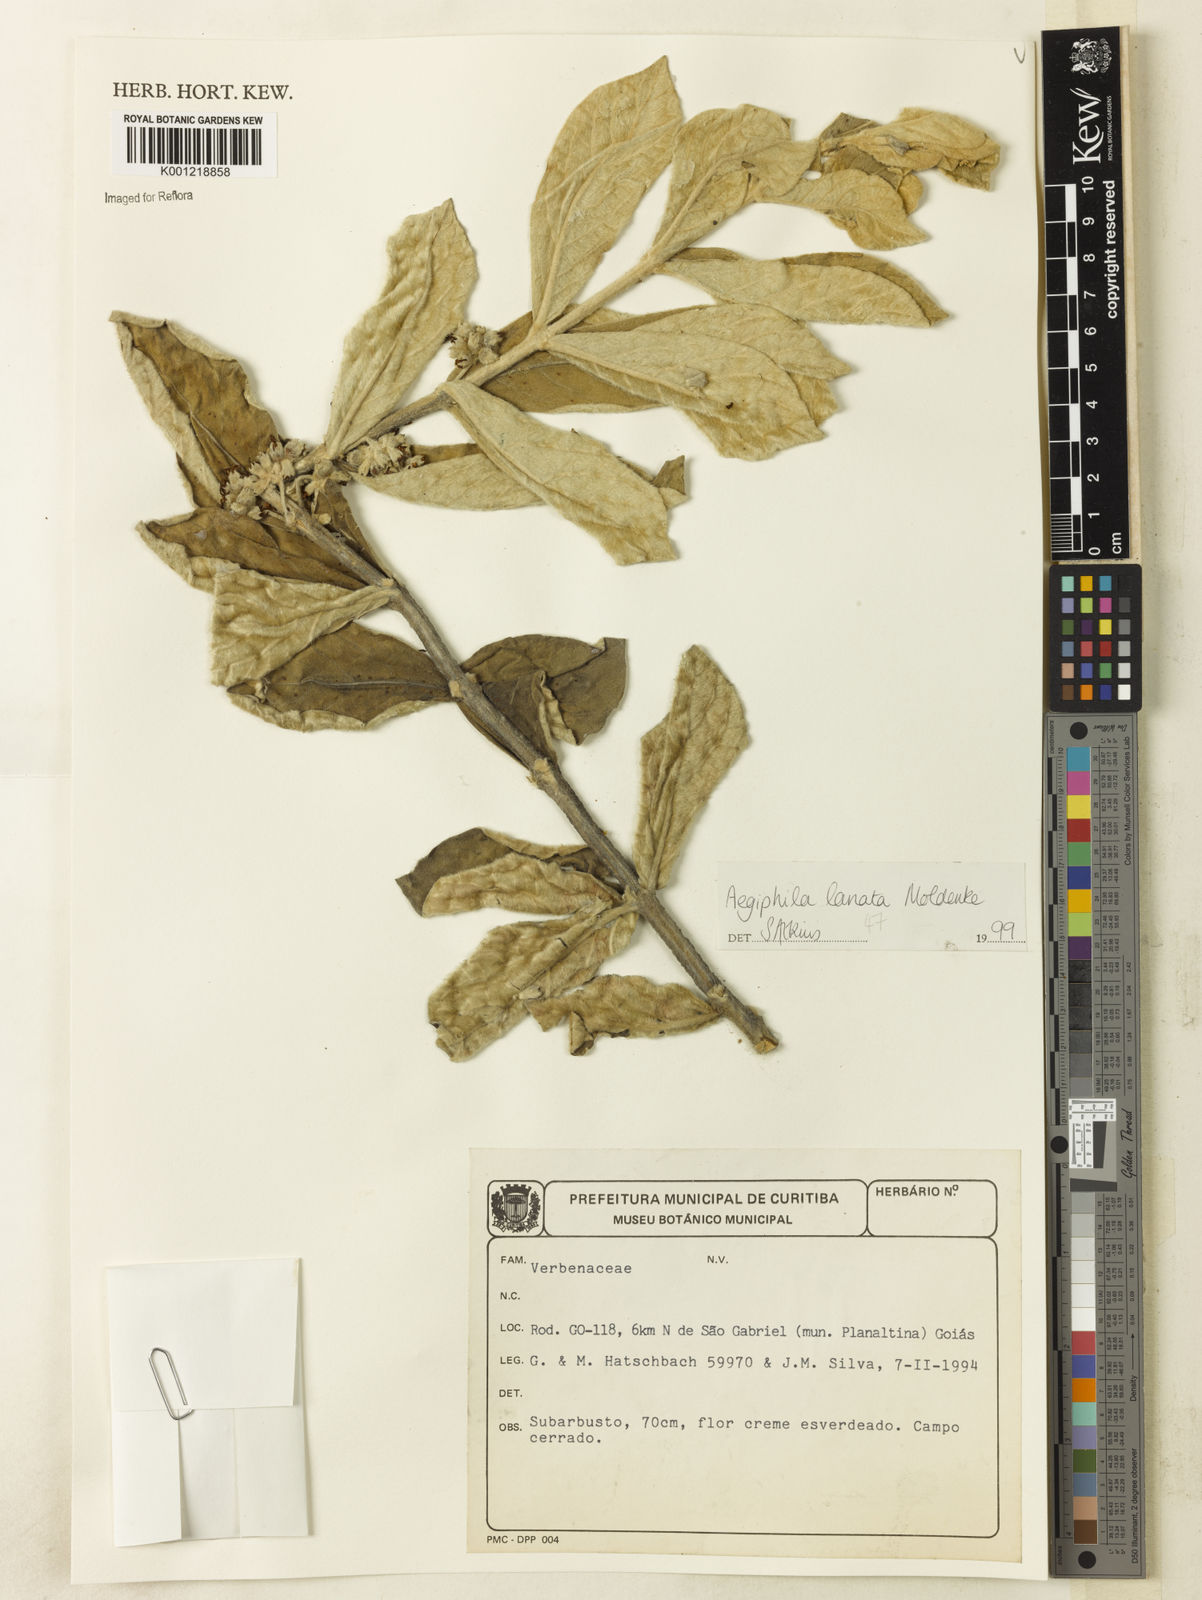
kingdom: Plantae
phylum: Tracheophyta
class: Magnoliopsida
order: Lamiales
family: Lamiaceae
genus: Aegiphila
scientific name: Aegiphila verticillata
